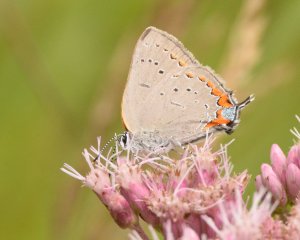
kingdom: Animalia
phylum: Arthropoda
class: Insecta
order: Lepidoptera
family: Lycaenidae
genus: Strymon
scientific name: Strymon acadica
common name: Acadian Hairstreak
